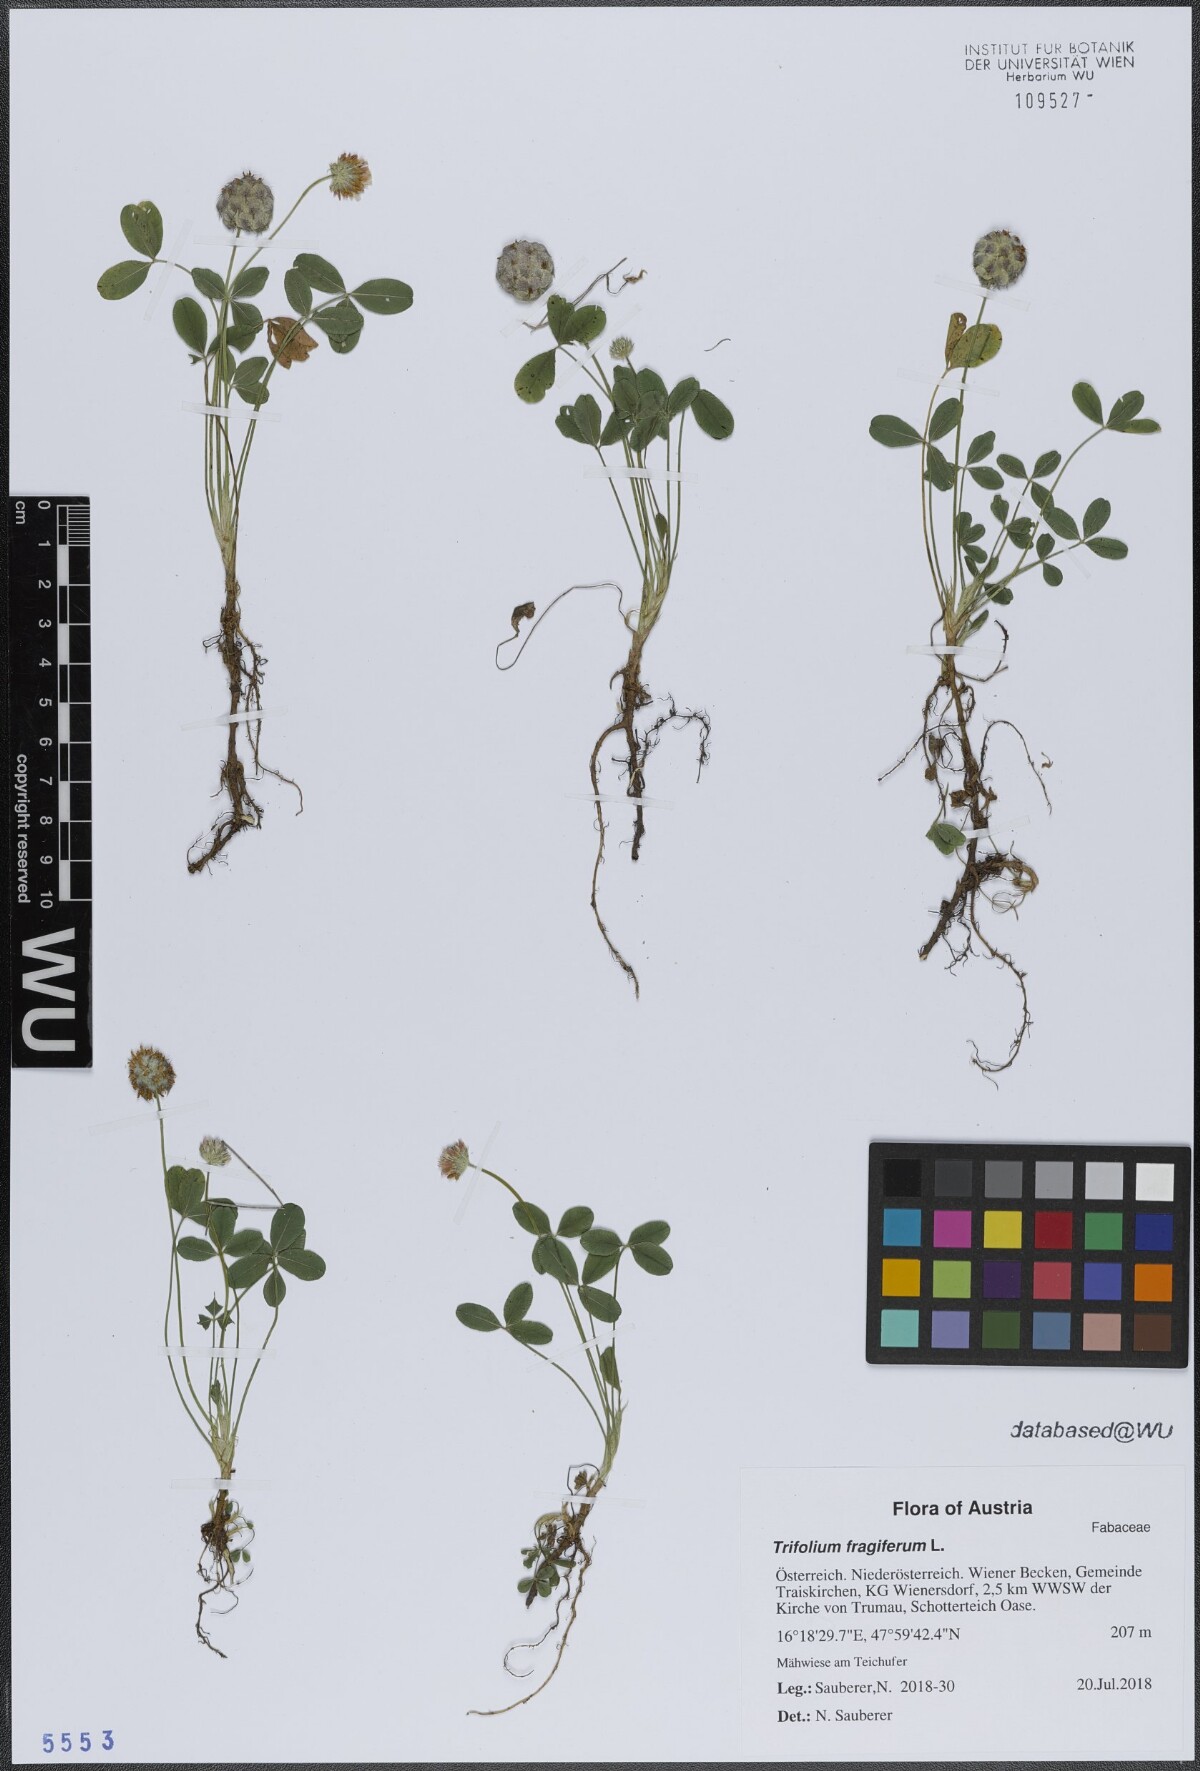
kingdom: Plantae
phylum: Tracheophyta
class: Magnoliopsida
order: Fabales
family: Fabaceae
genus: Trifolium
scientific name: Trifolium fragiferum
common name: Strawberry clover
